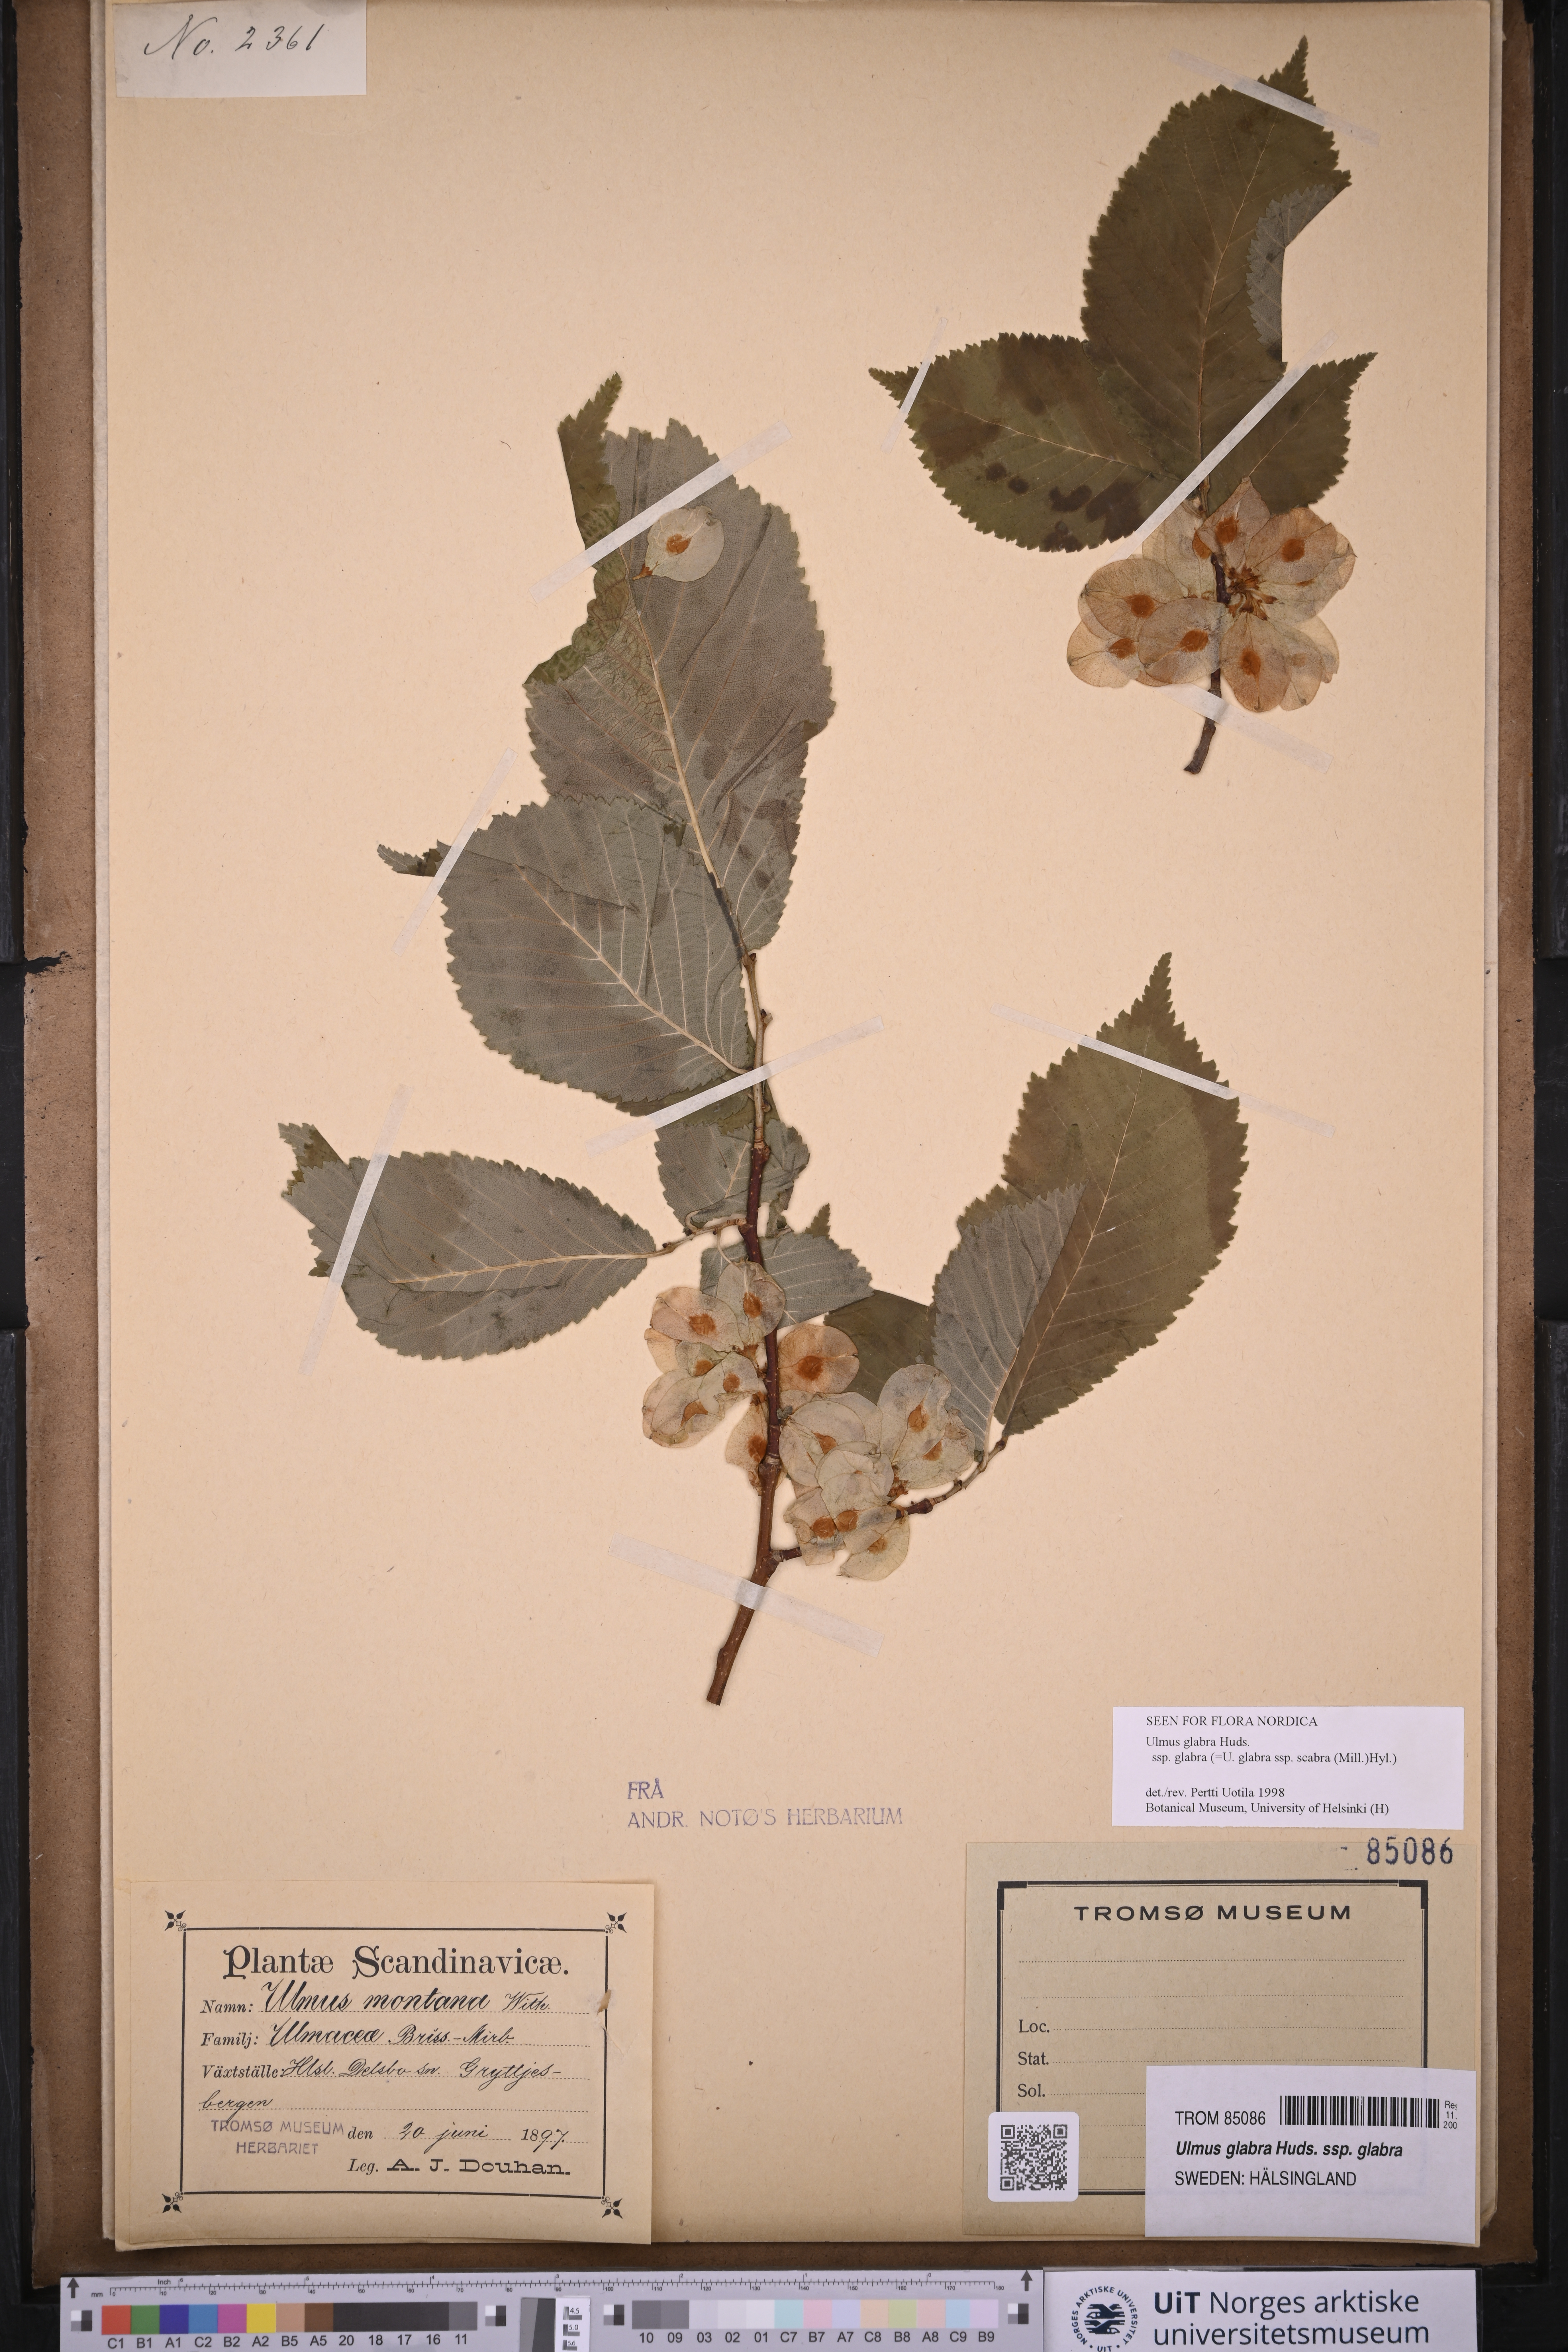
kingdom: Plantae
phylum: Tracheophyta
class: Magnoliopsida
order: Rosales
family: Ulmaceae
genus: Ulmus
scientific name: Ulmus glabra
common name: Wych elm
